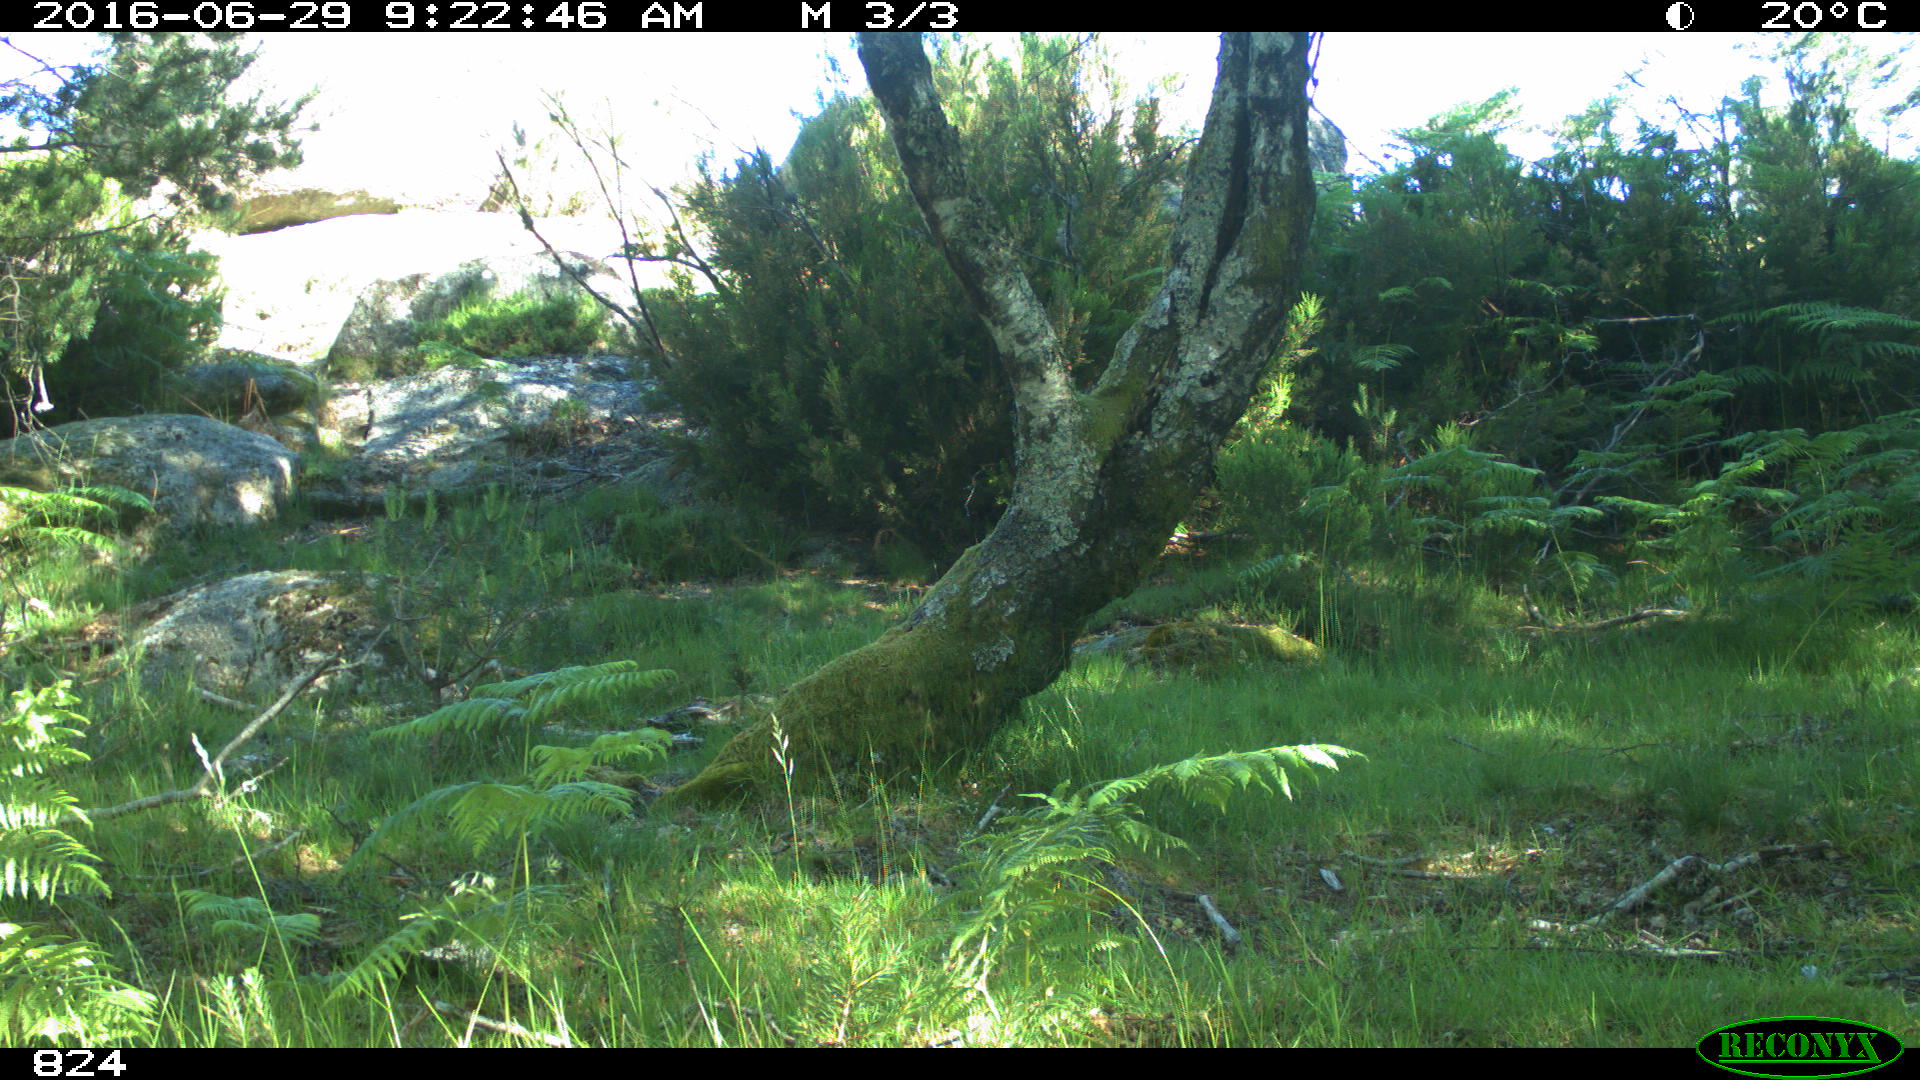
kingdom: Animalia
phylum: Chordata
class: Mammalia
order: Carnivora
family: Canidae
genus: Canis
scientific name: Canis lupus
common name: Gray wolf
